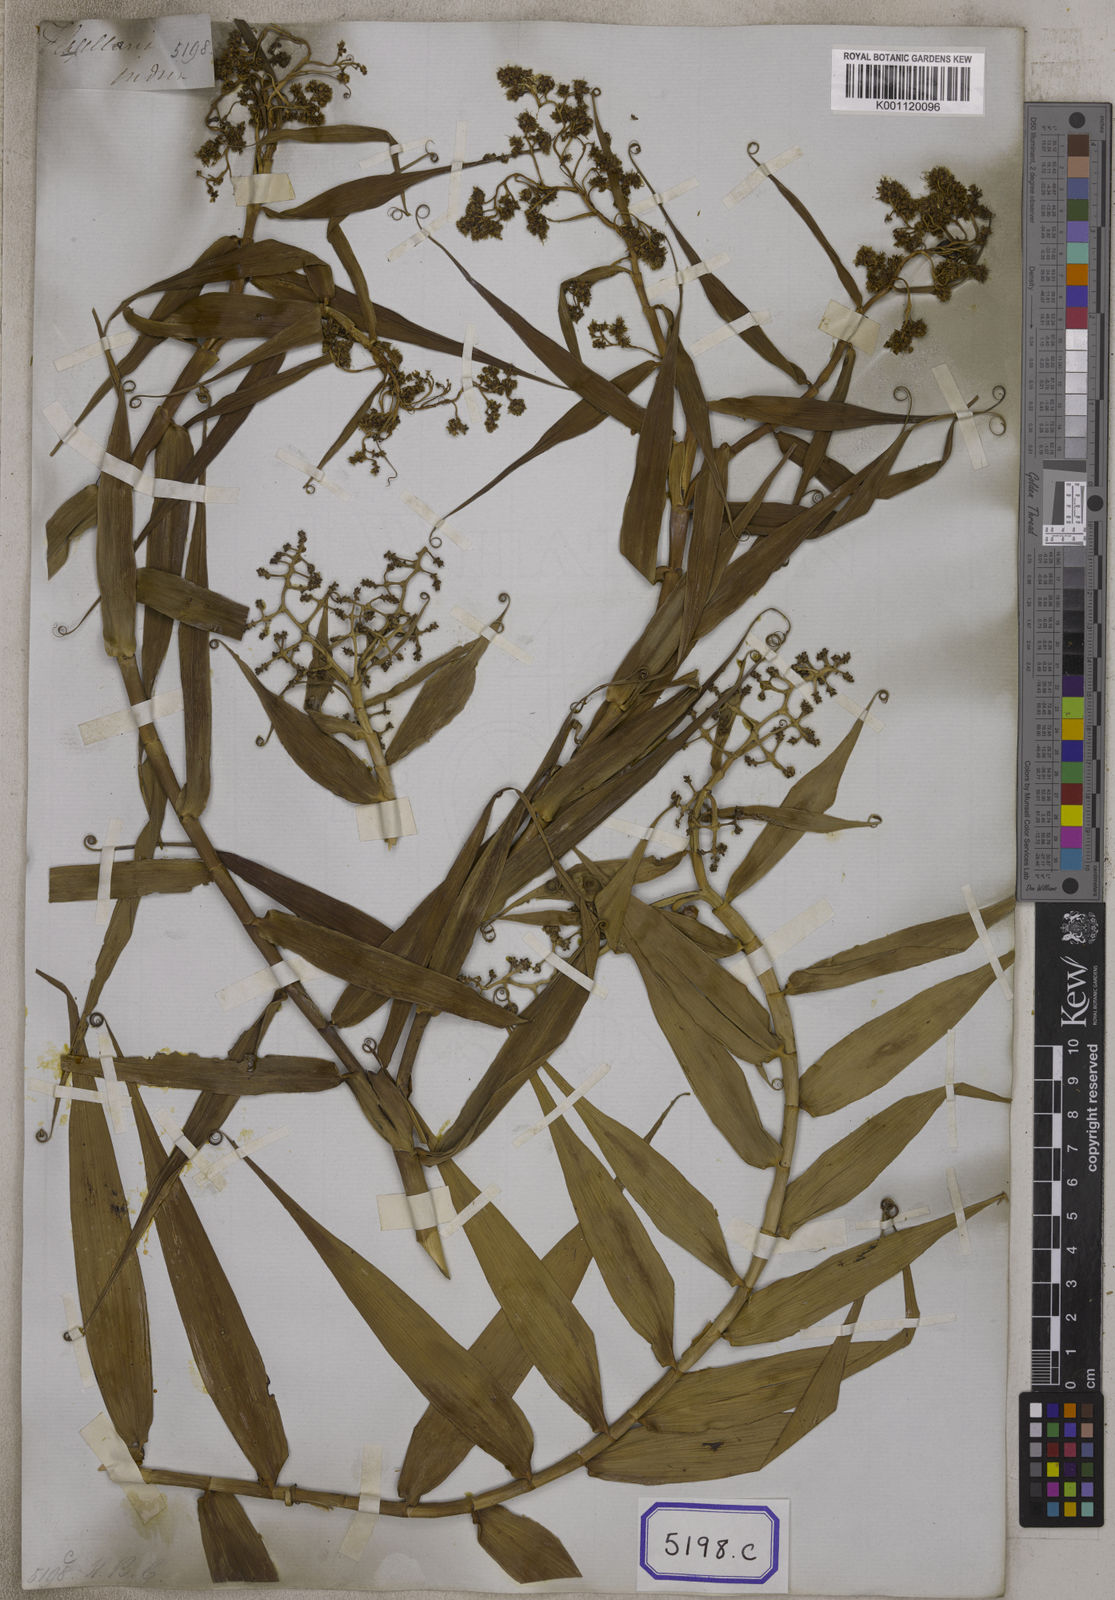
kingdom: Plantae
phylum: Tracheophyta
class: Liliopsida
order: Poales
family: Flagellariaceae
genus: Flagellaria
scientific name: Flagellaria indica
